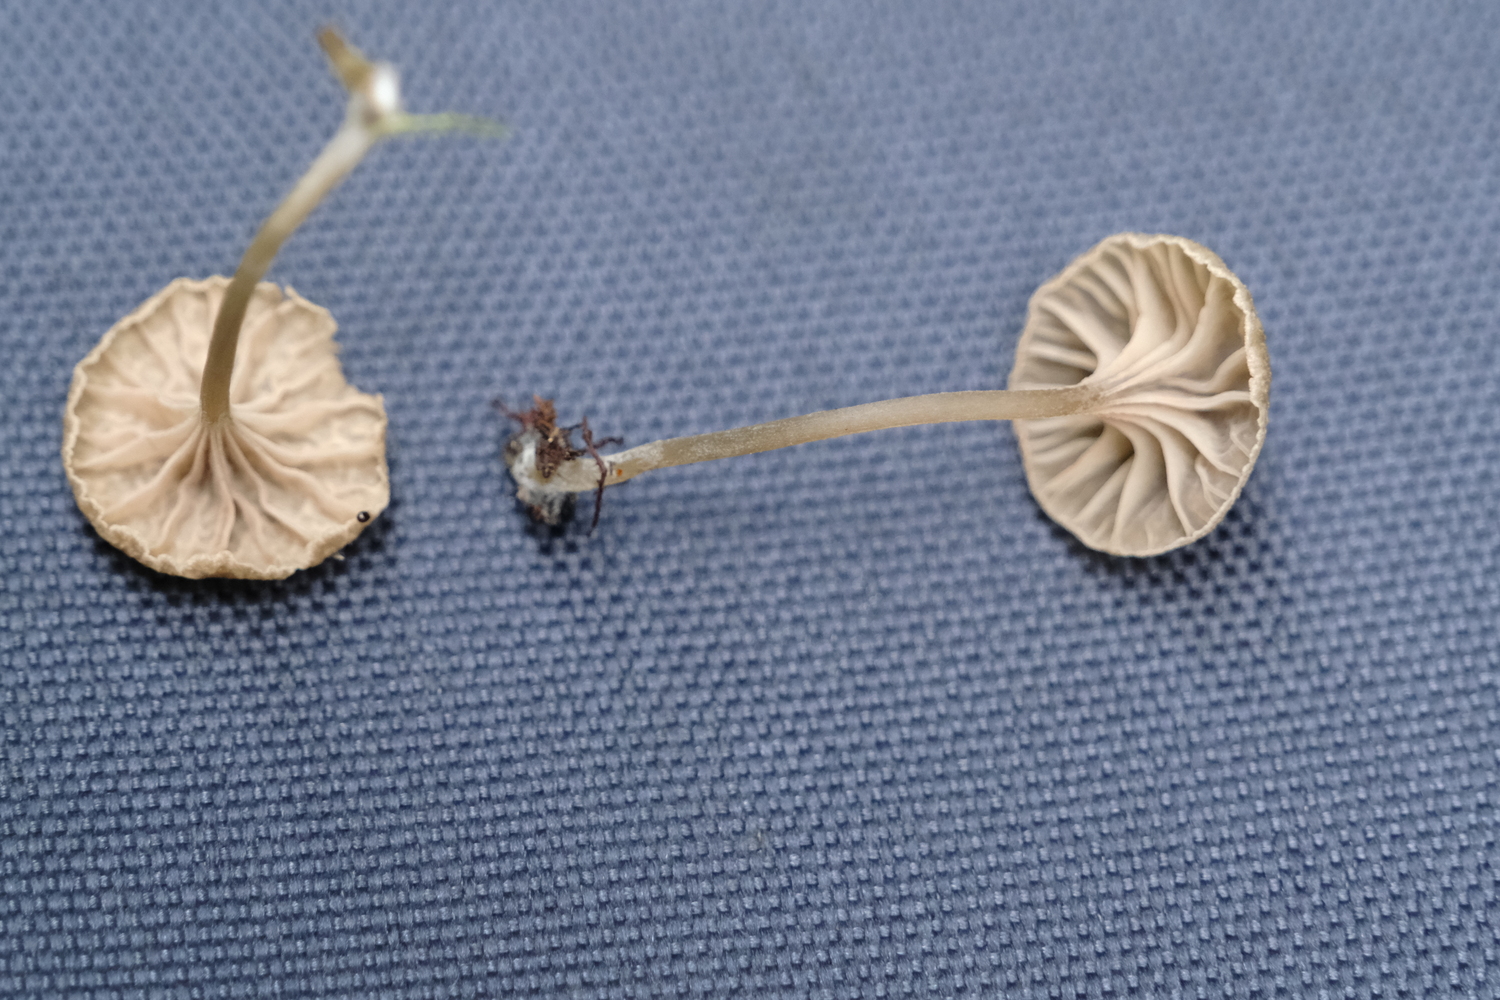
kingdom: Fungi
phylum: Basidiomycota
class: Agaricomycetes
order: Agaricales
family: Entolomataceae
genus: Entoloma
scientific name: Entoloma rhodocylix
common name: fjernbladet rødblad
